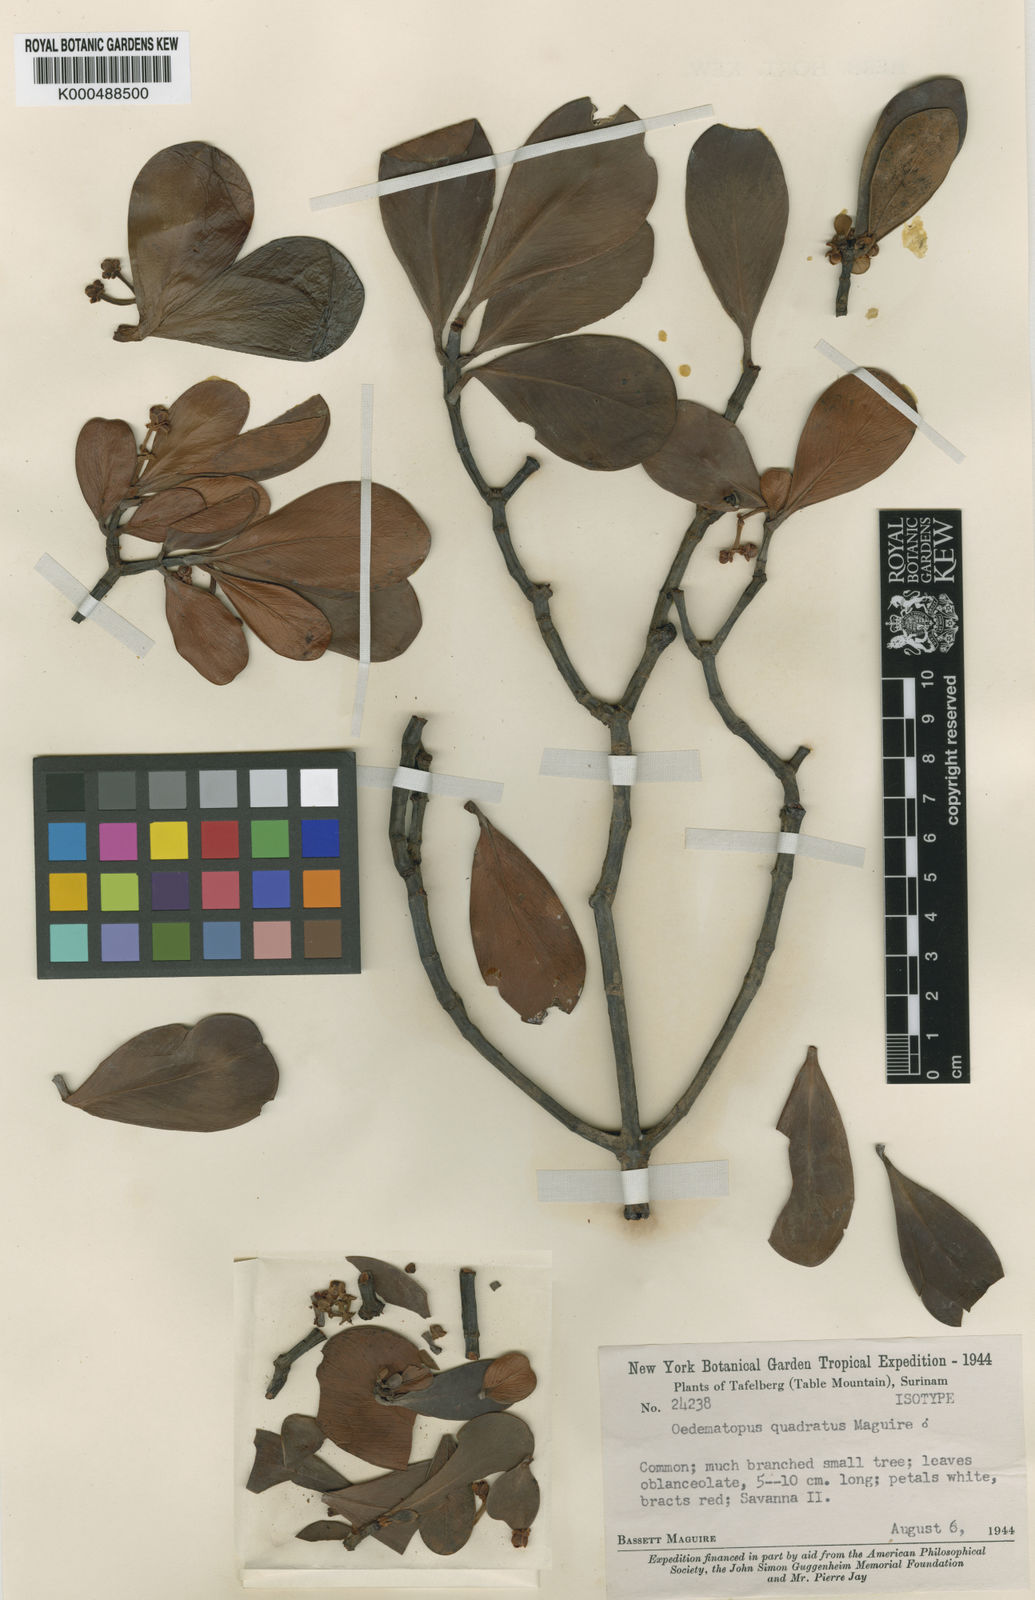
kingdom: Plantae
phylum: Tracheophyta
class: Magnoliopsida
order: Malpighiales
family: Clusiaceae
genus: Clusia
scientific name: Clusia obovata
